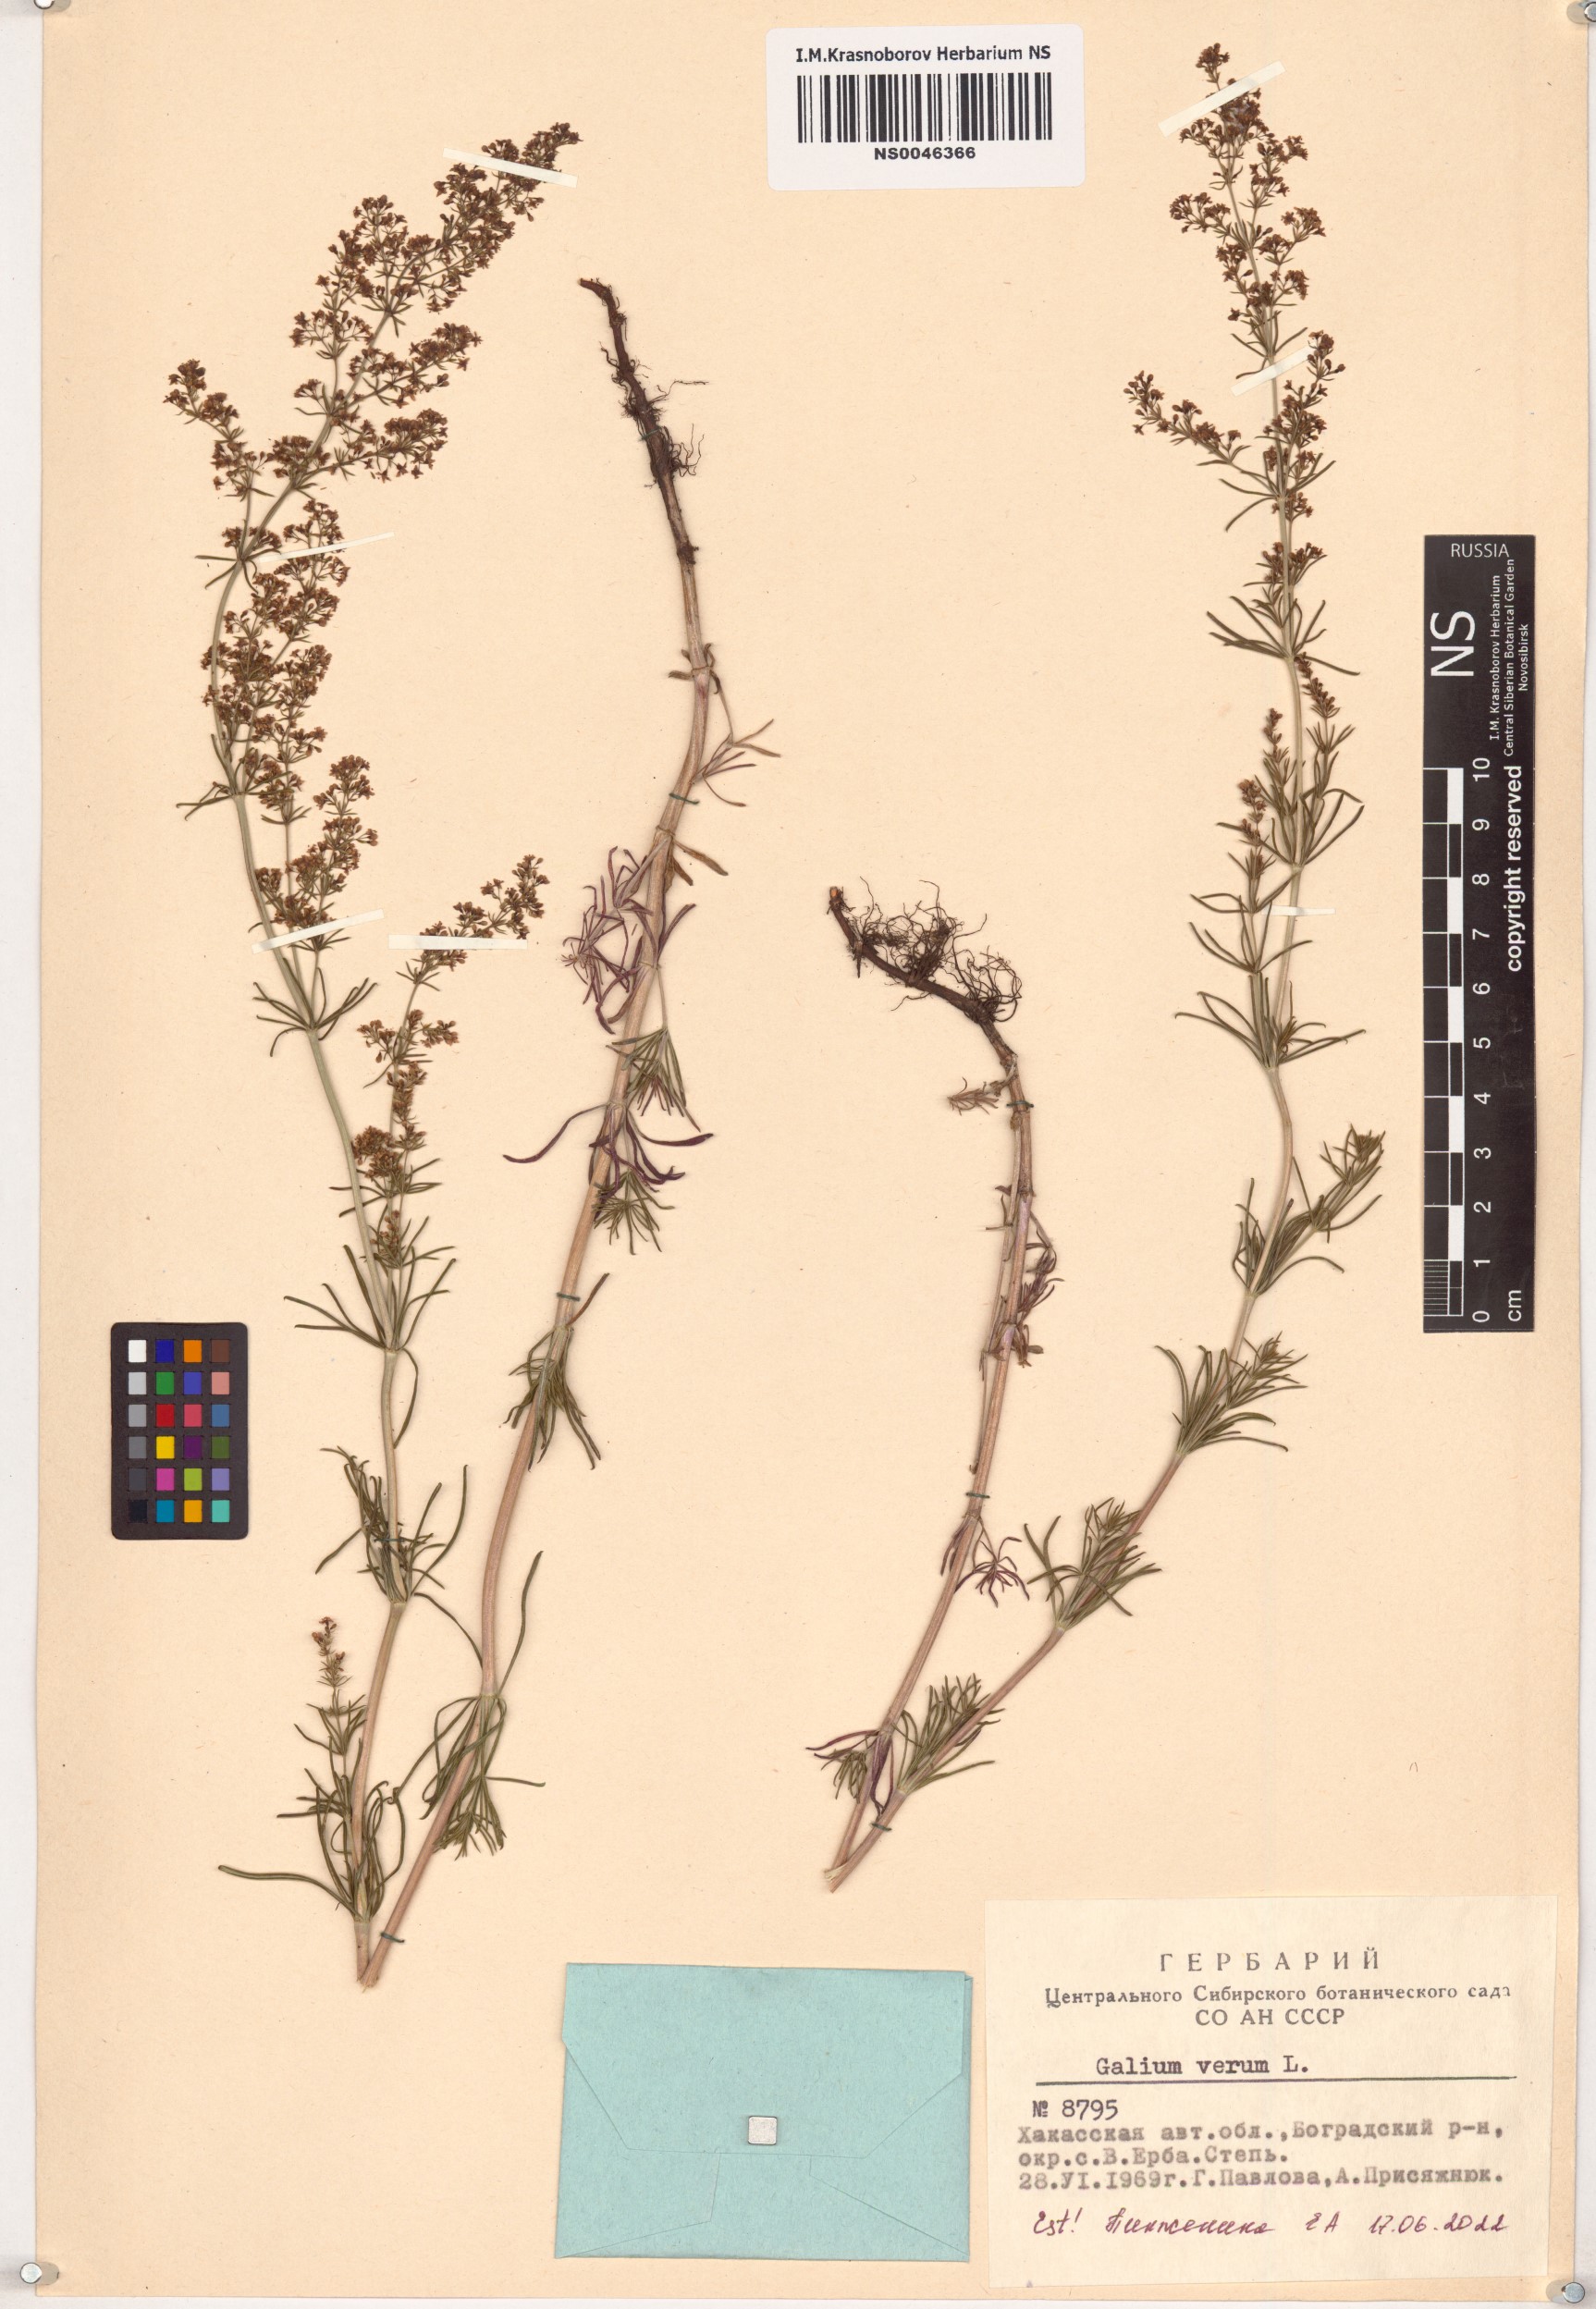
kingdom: Plantae
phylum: Tracheophyta
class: Magnoliopsida
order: Gentianales
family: Rubiaceae
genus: Galium
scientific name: Galium verum
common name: Lady's bedstraw
